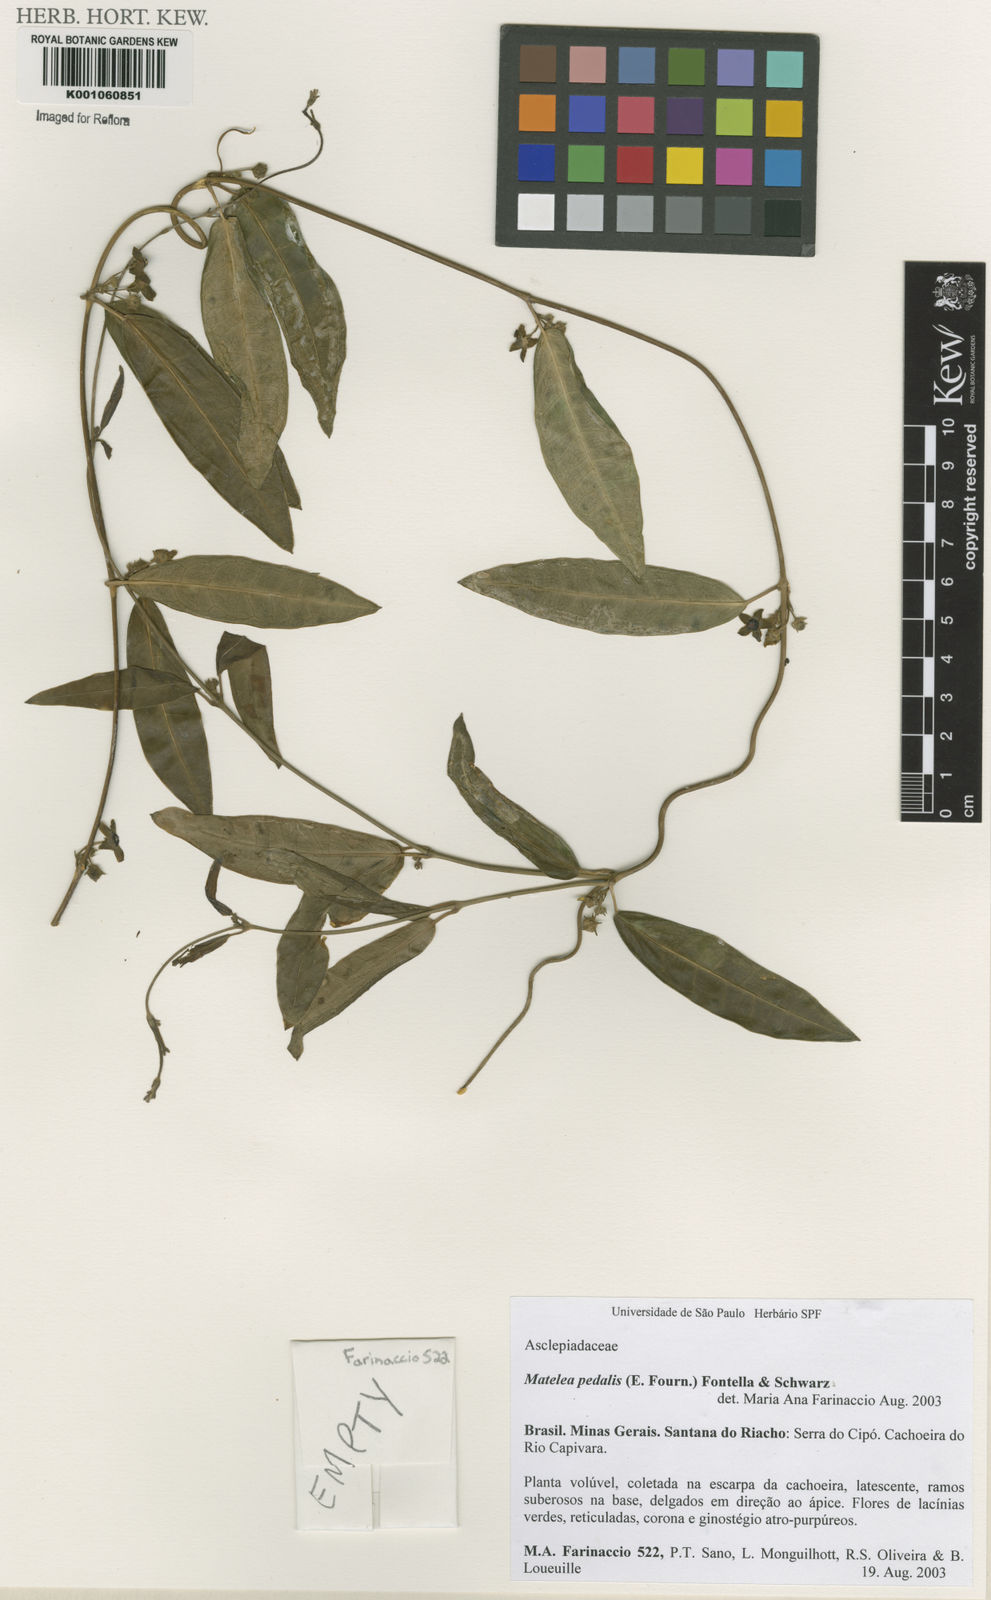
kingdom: Plantae
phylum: Tracheophyta
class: Magnoliopsida
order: Gentianales
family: Apocynaceae
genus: Matelea
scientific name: Matelea pedalis
